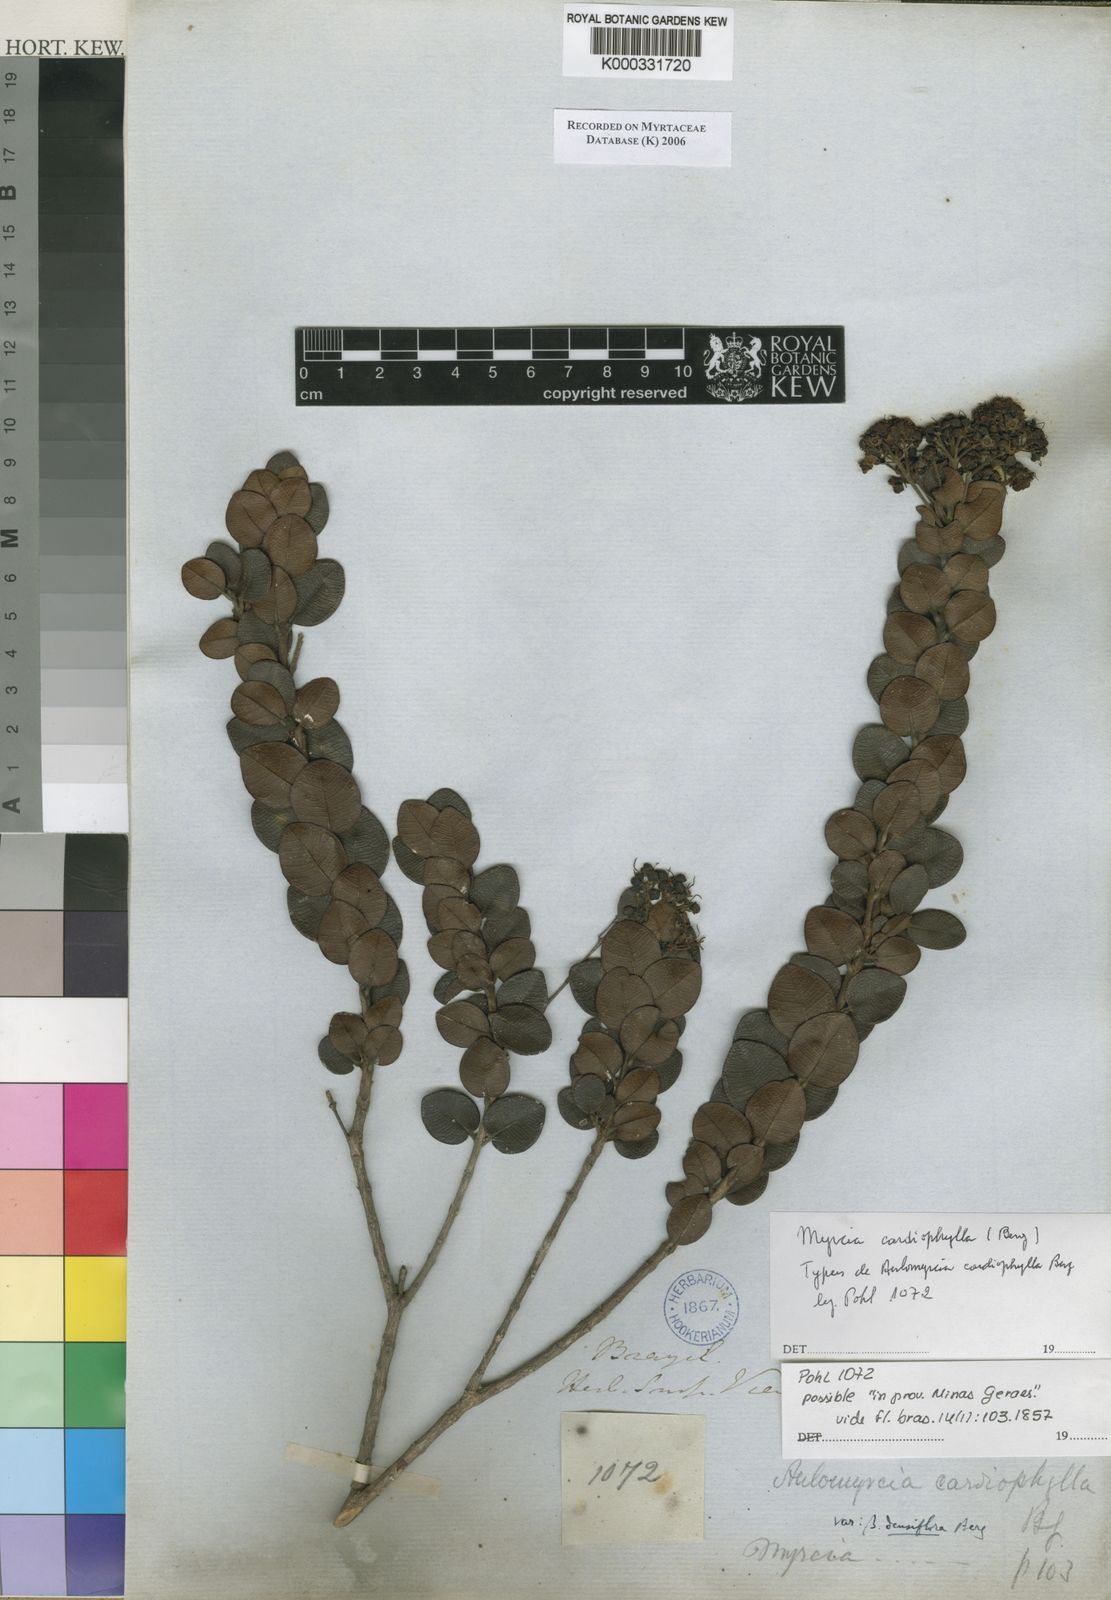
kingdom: Plantae
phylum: Tracheophyta
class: Magnoliopsida
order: Myrtales
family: Myrtaceae
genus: Myrcia
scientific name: Myrcia altera
